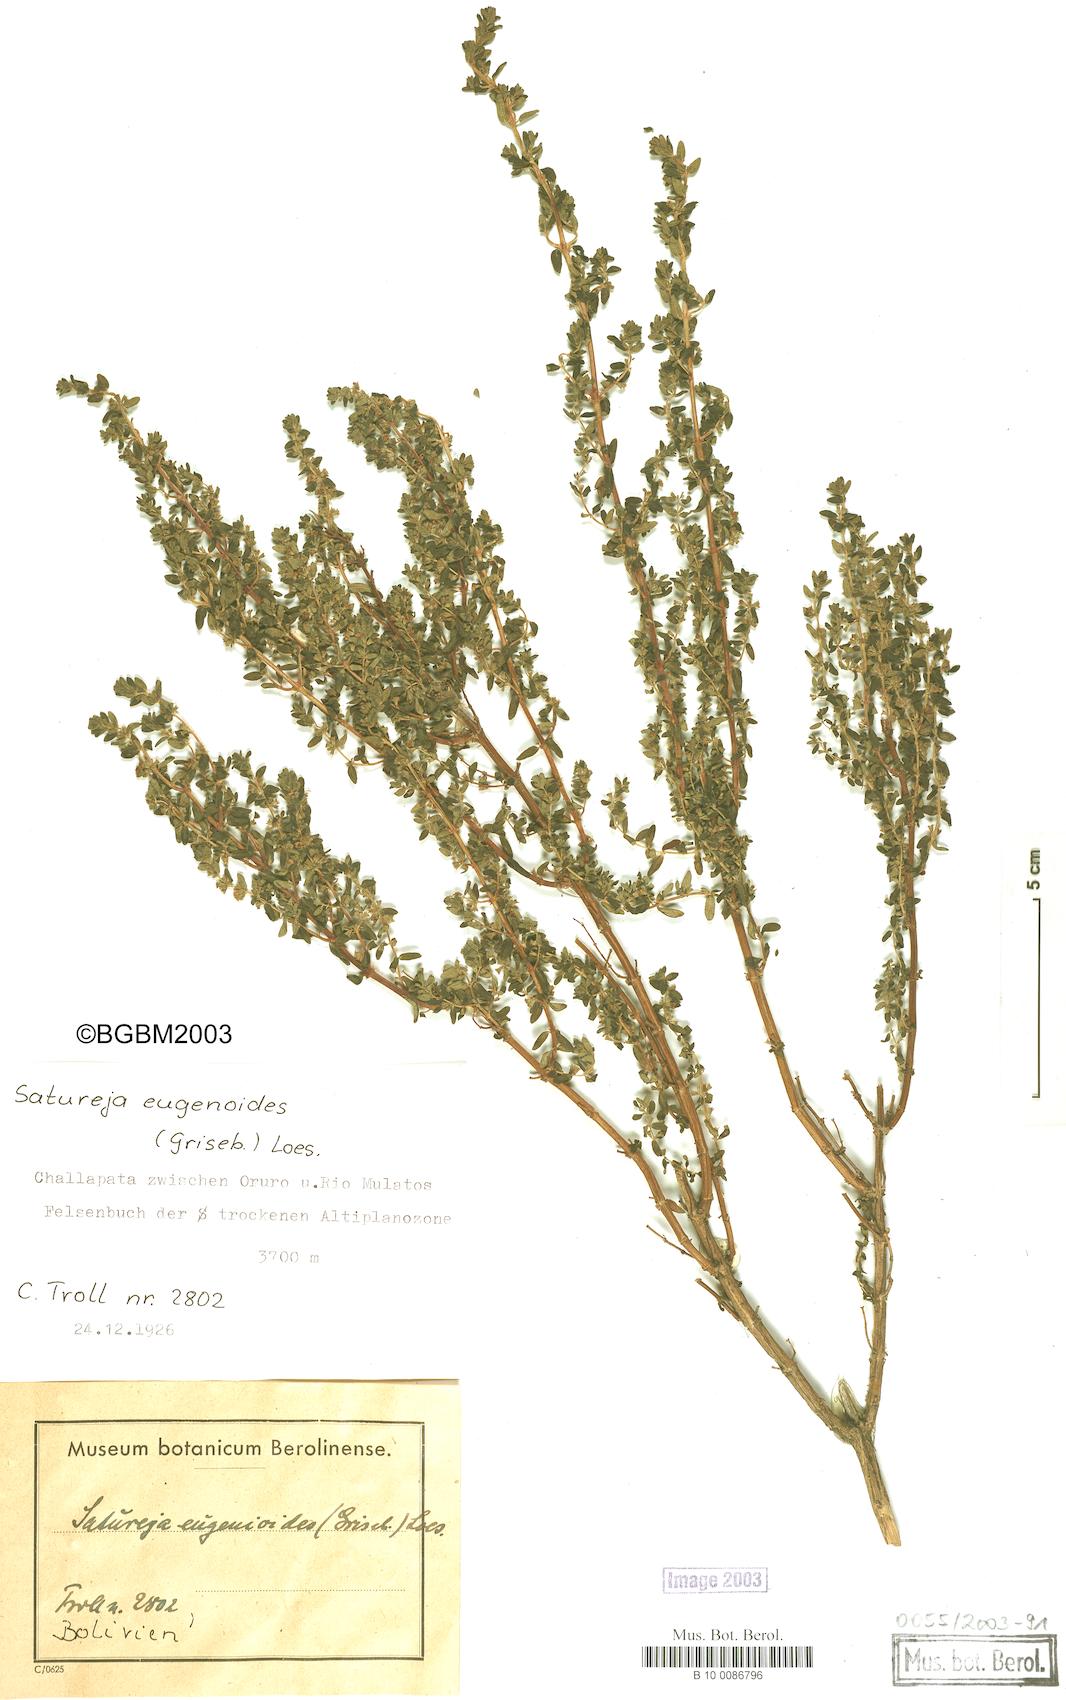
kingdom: Plantae
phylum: Tracheophyta
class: Magnoliopsida
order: Lamiales
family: Lamiaceae
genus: Satureja
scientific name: Satureja eugenioides
